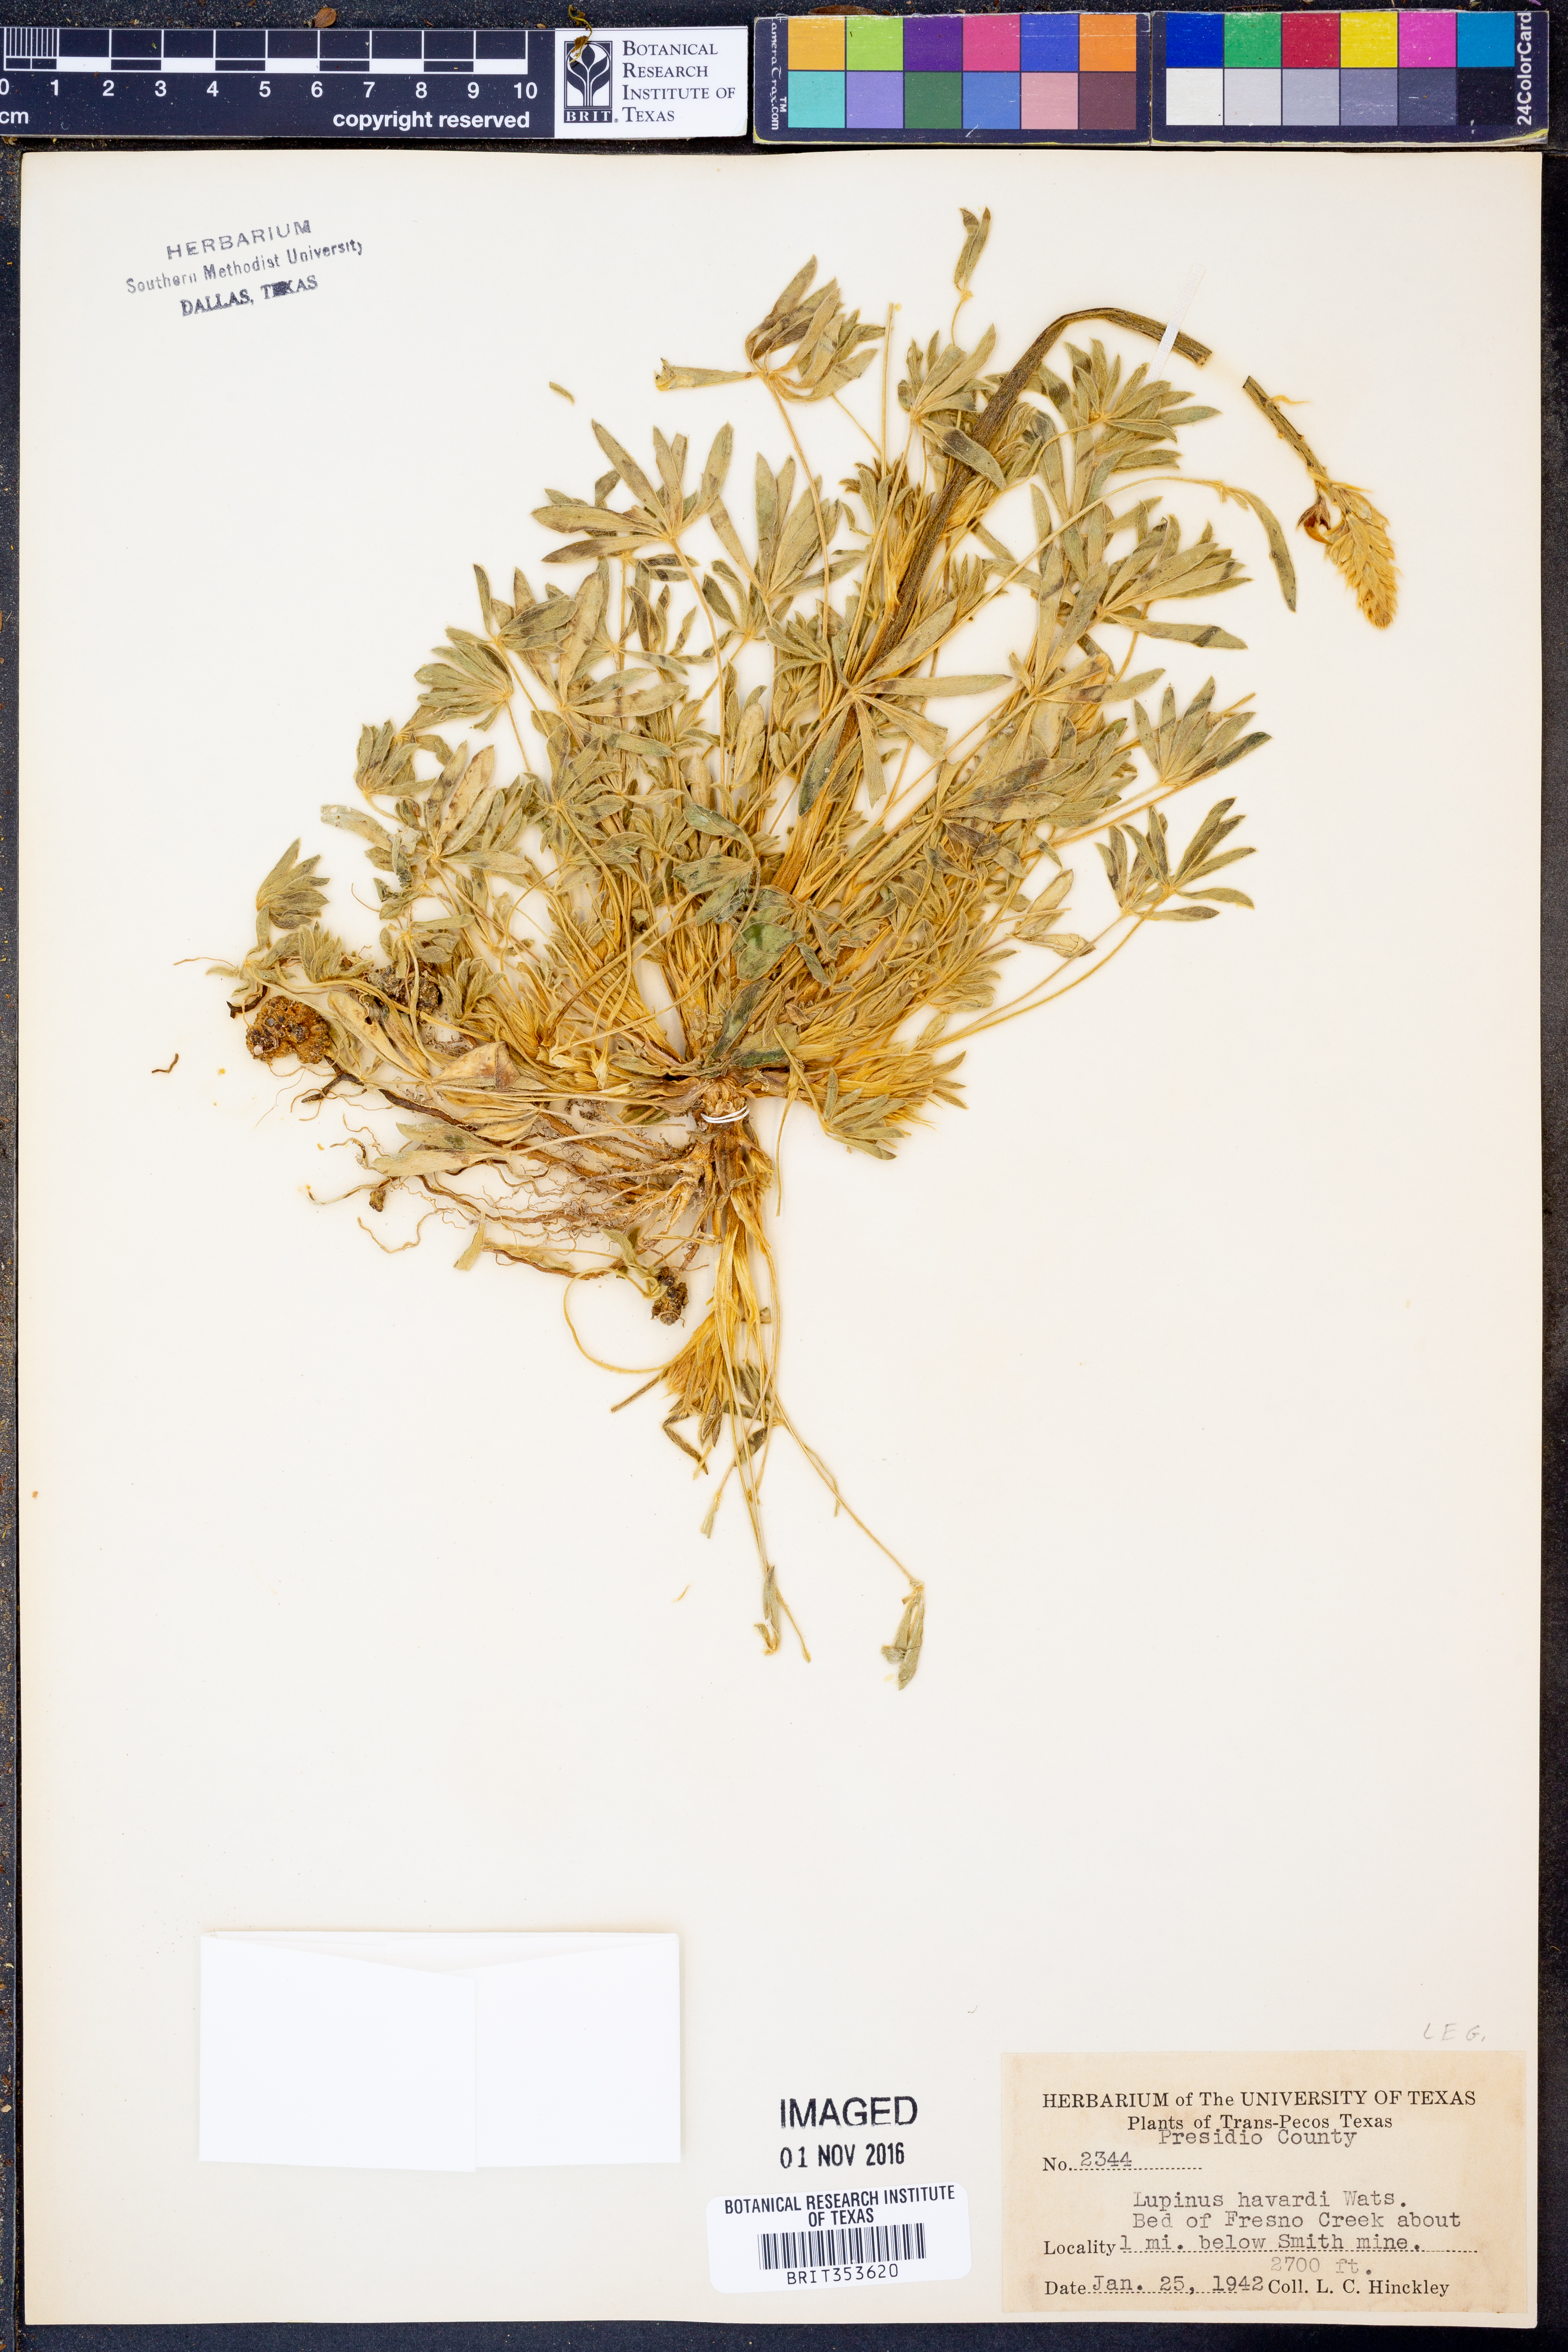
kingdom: Plantae
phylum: Tracheophyta
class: Magnoliopsida
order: Fabales
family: Fabaceae
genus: Lupinus
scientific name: Lupinus havardii
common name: Chisos bluebonnet
